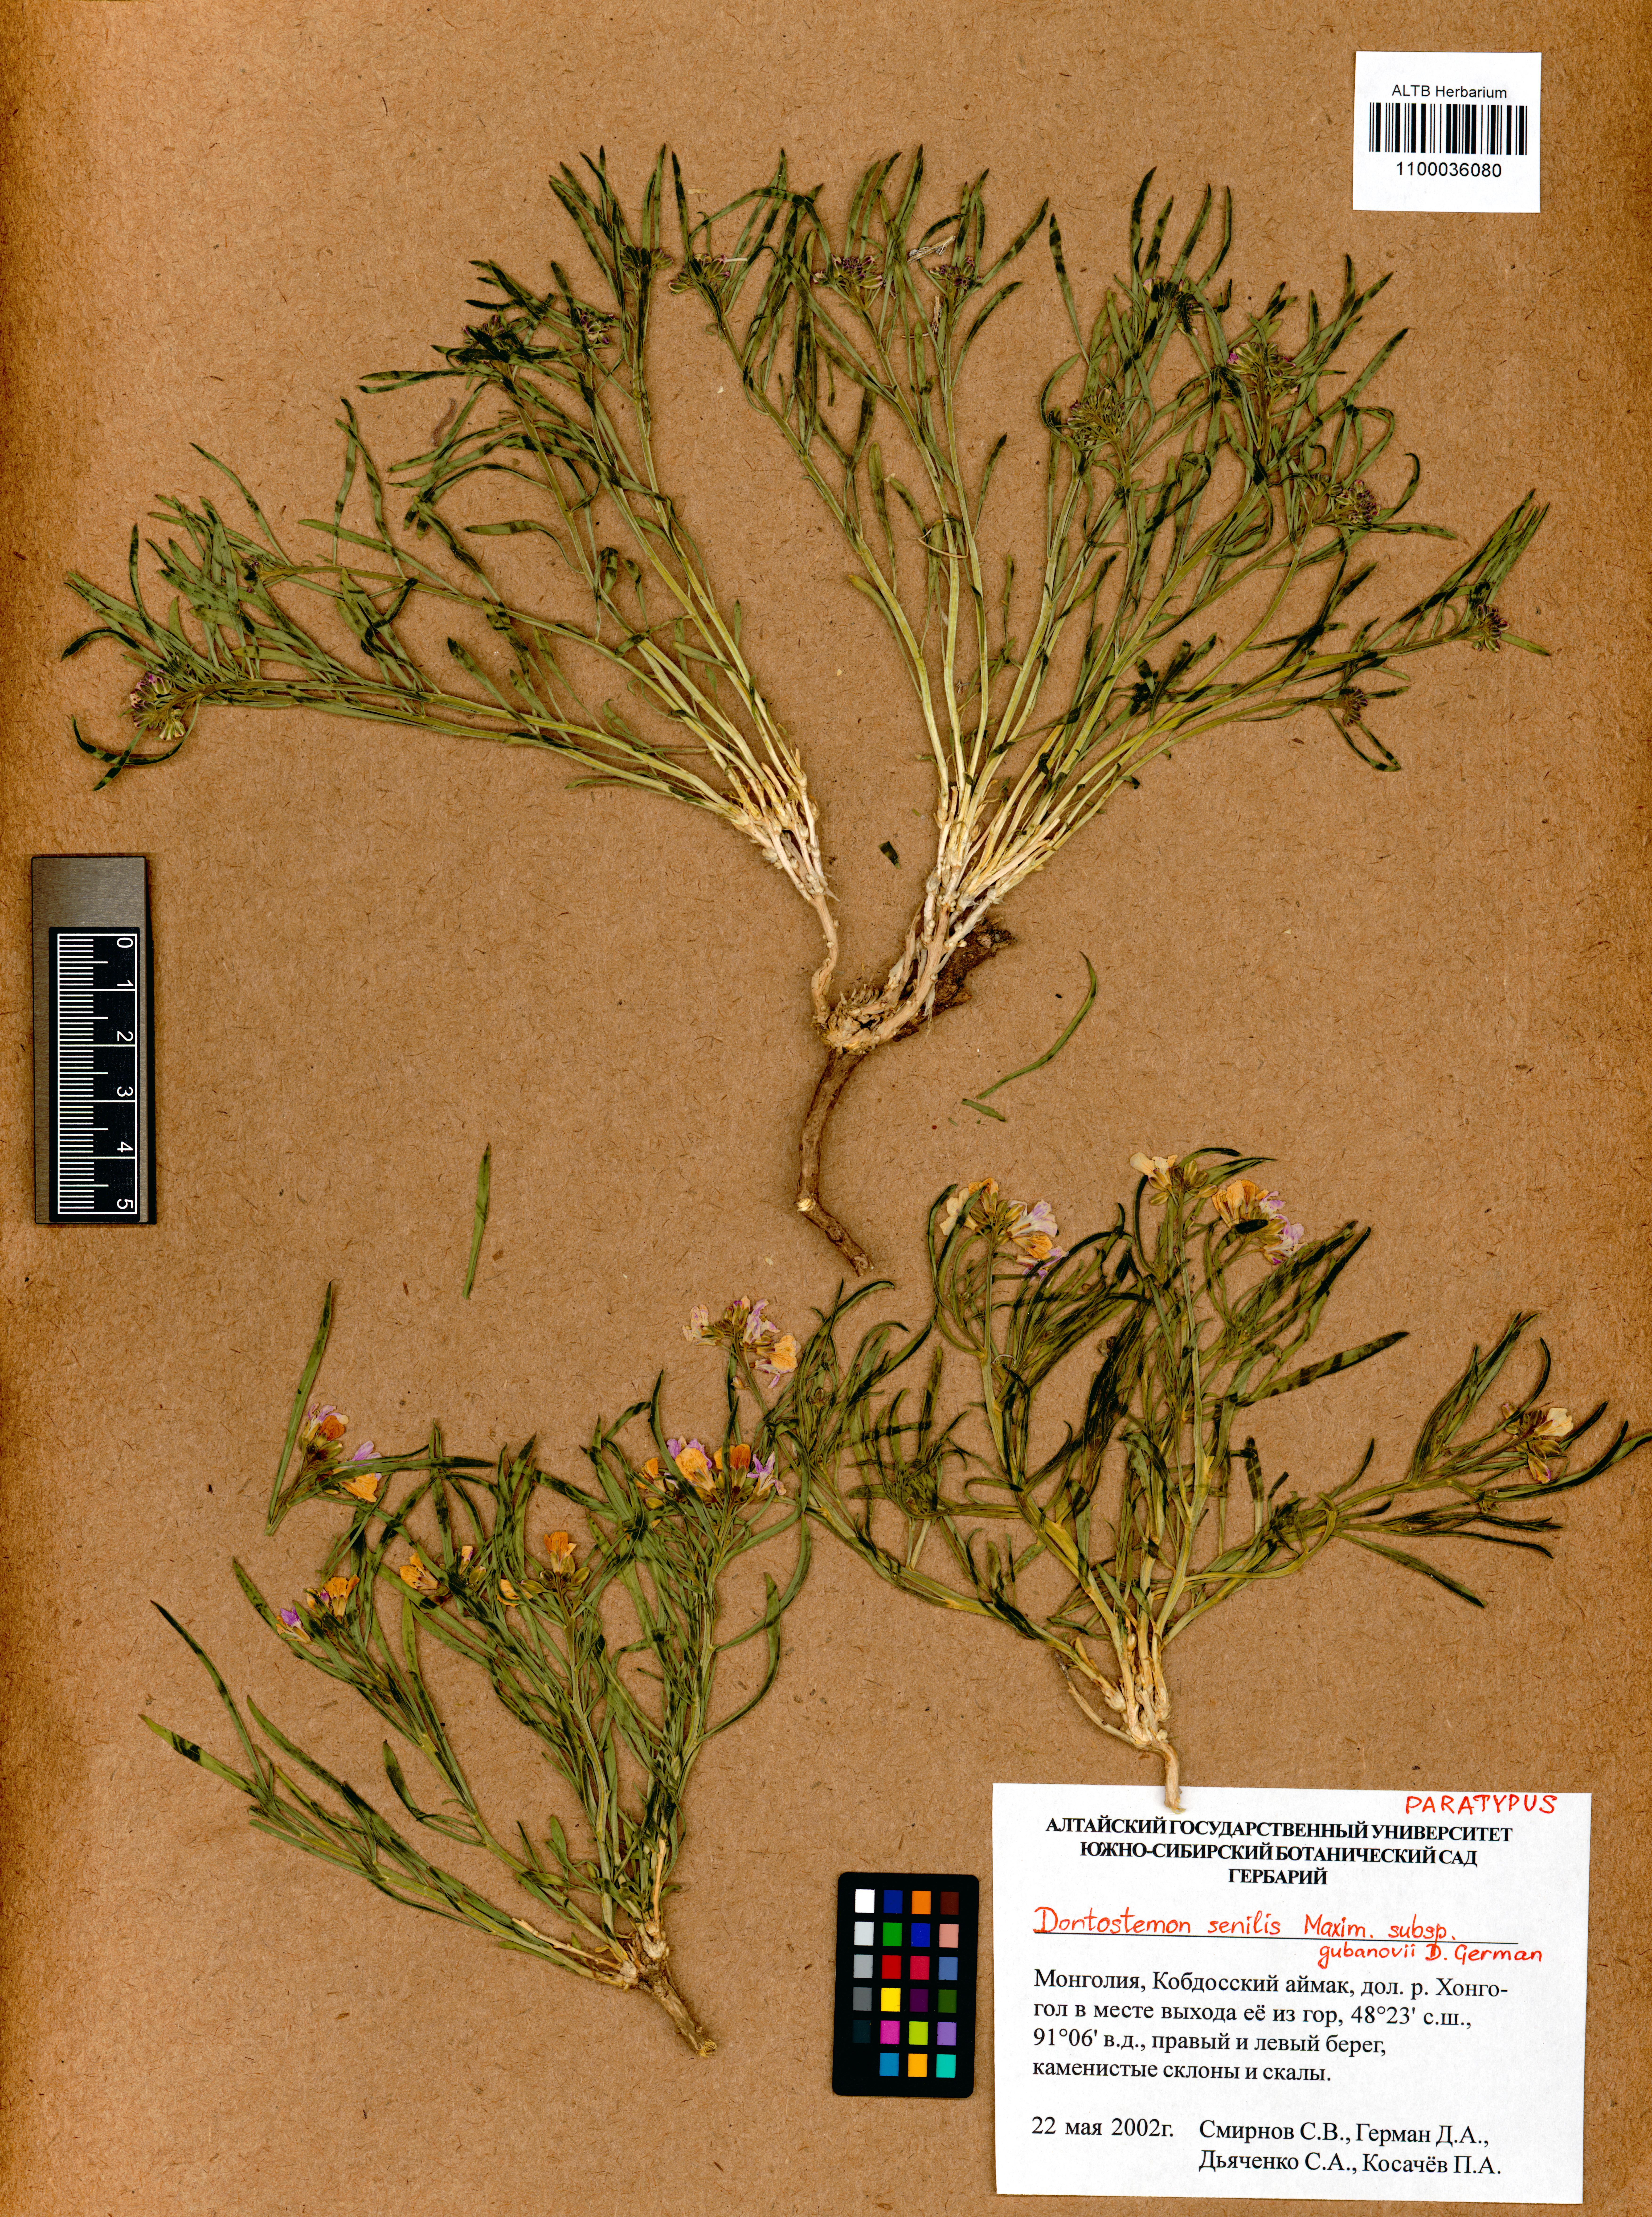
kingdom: Plantae
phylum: Tracheophyta
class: Magnoliopsida
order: Brassicales
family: Brassicaceae
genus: Dontostemon
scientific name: Dontostemon gubanovii
